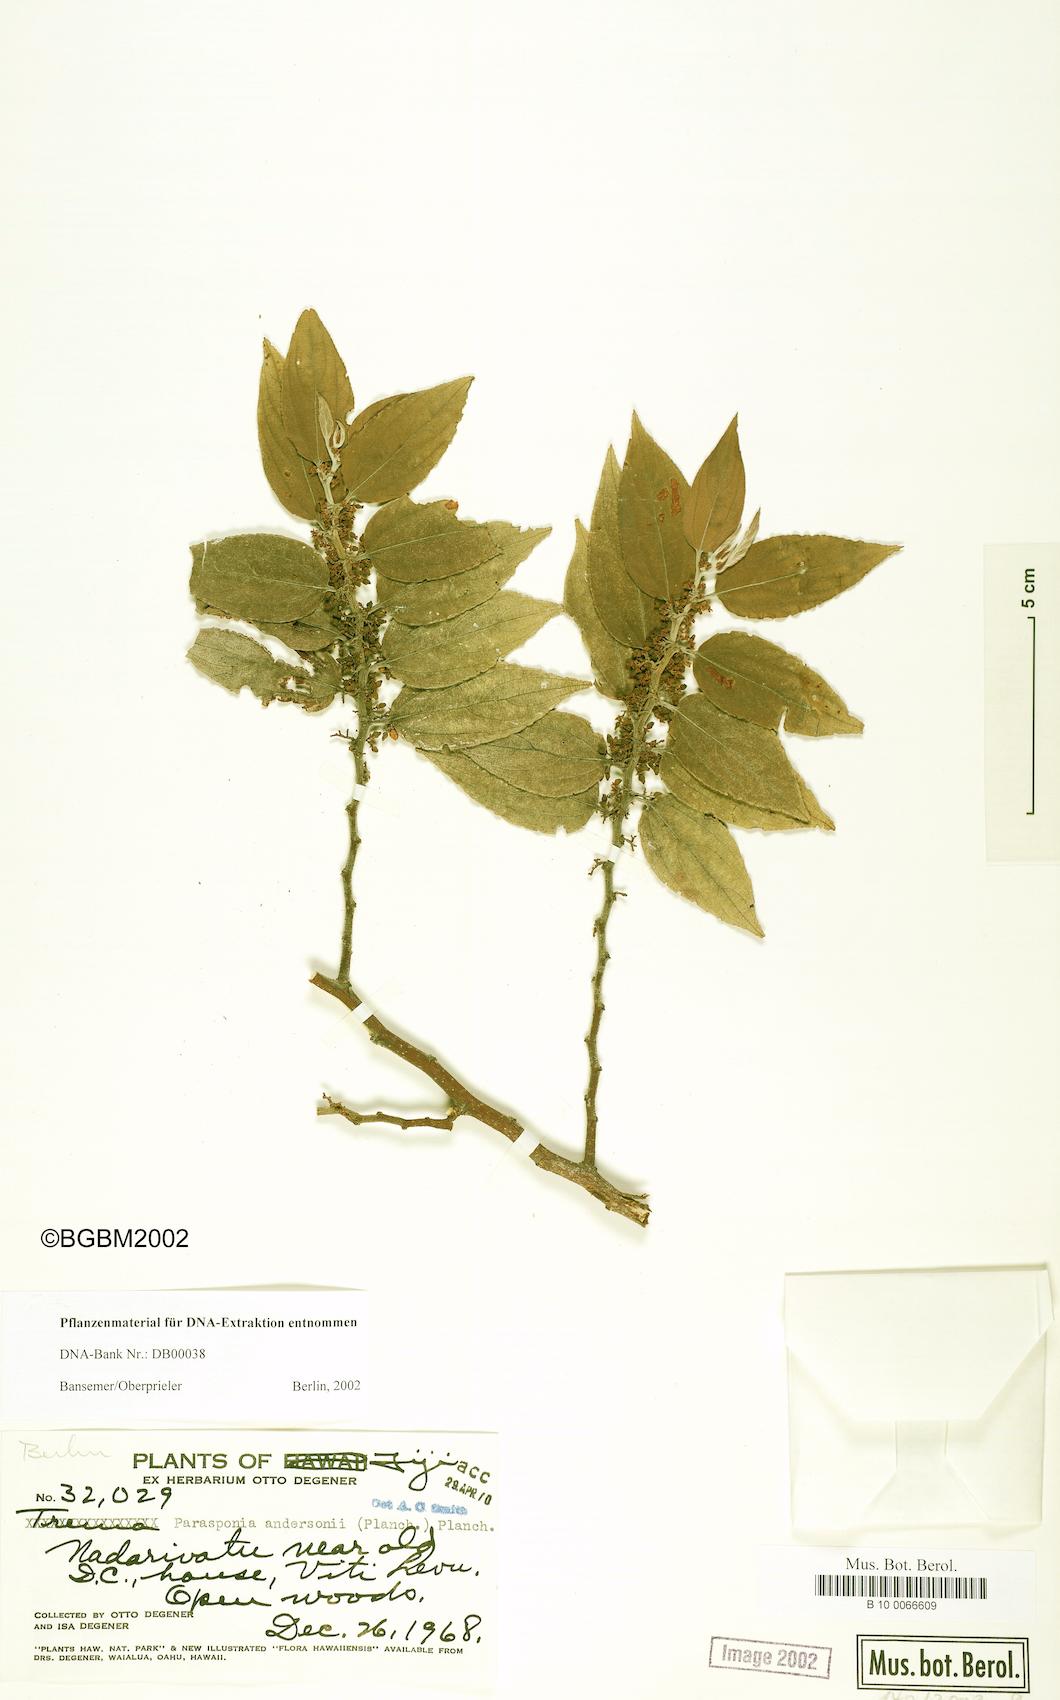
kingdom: Plantae
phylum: Tracheophyta
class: Magnoliopsida
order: Rosales
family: Cannabaceae
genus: Trema
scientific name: Trema andersonii
